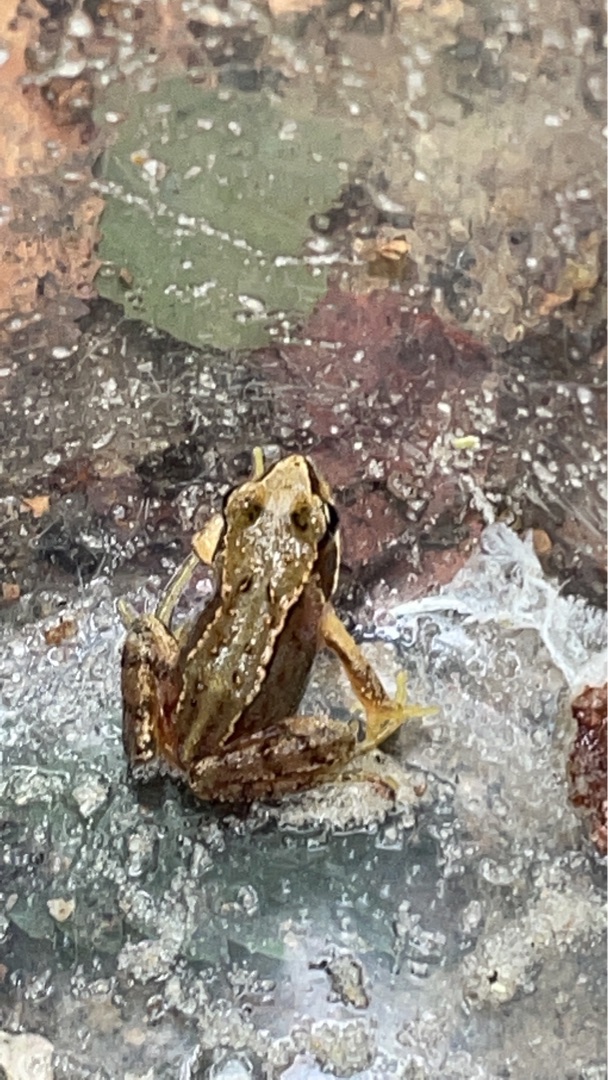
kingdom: Animalia
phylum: Chordata
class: Amphibia
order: Anura
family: Ranidae
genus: Rana
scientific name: Rana temporaria
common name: Butsnudet frø
